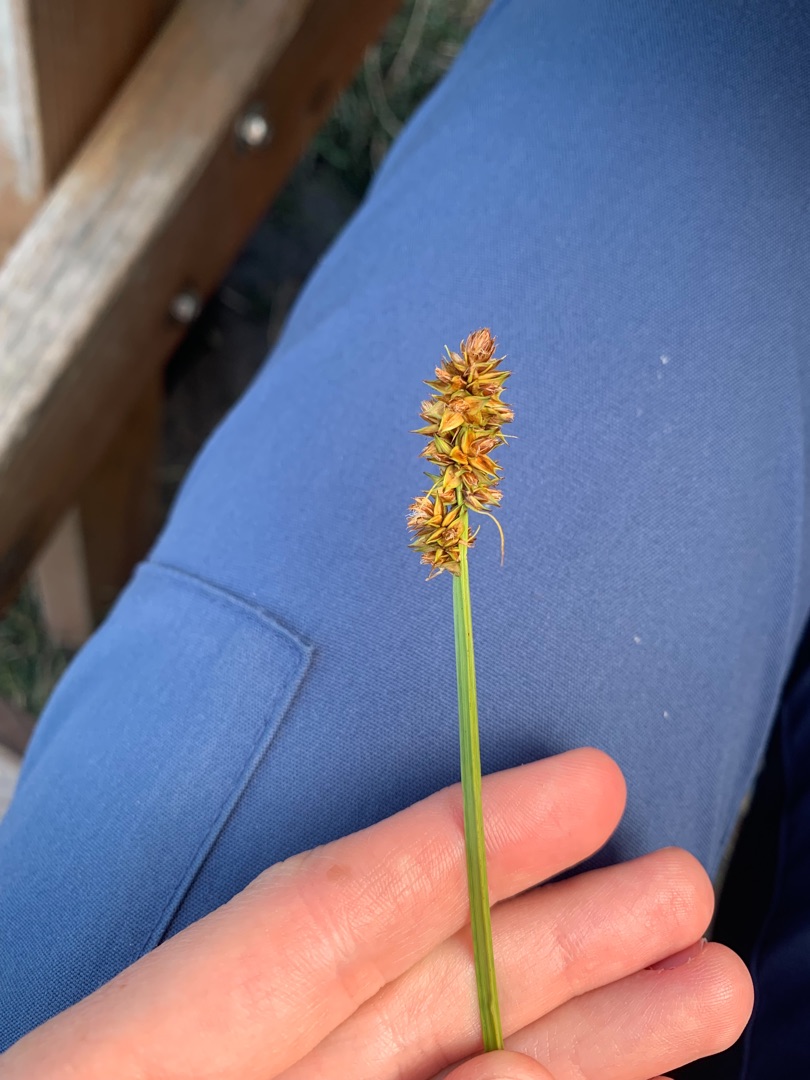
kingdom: Plantae
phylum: Tracheophyta
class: Liliopsida
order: Poales
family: Cyperaceae
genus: Carex
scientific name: Carex otrubae
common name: Sylt-star
